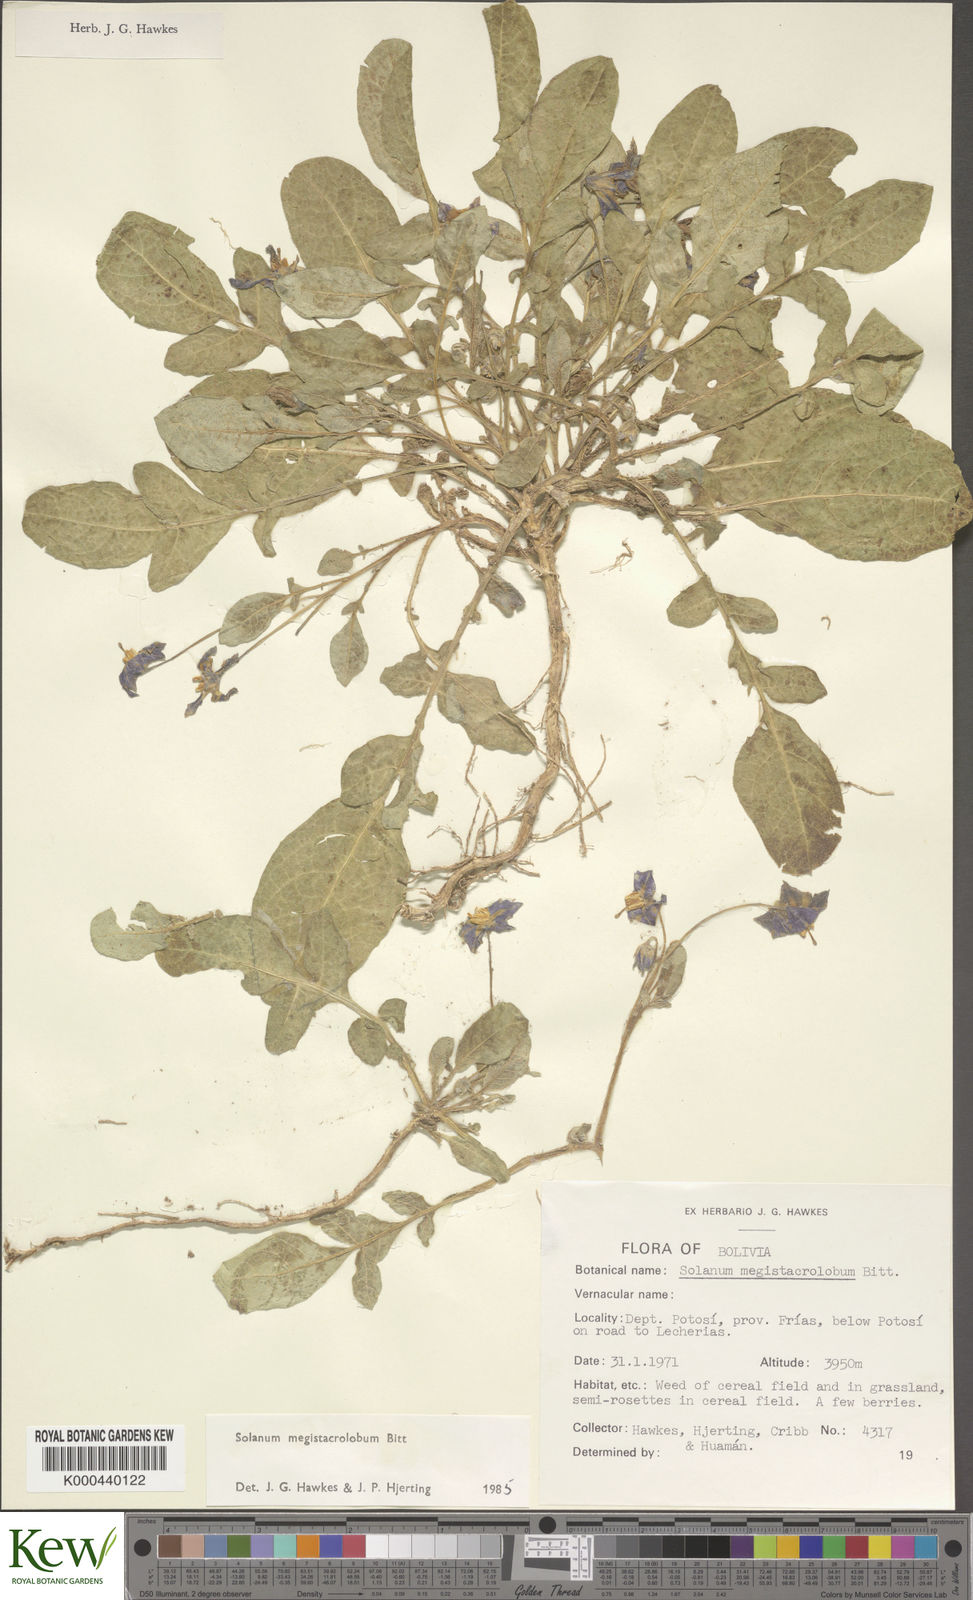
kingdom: Plantae
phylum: Tracheophyta
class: Magnoliopsida
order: Solanales
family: Solanaceae
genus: Solanum
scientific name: Solanum boliviense
